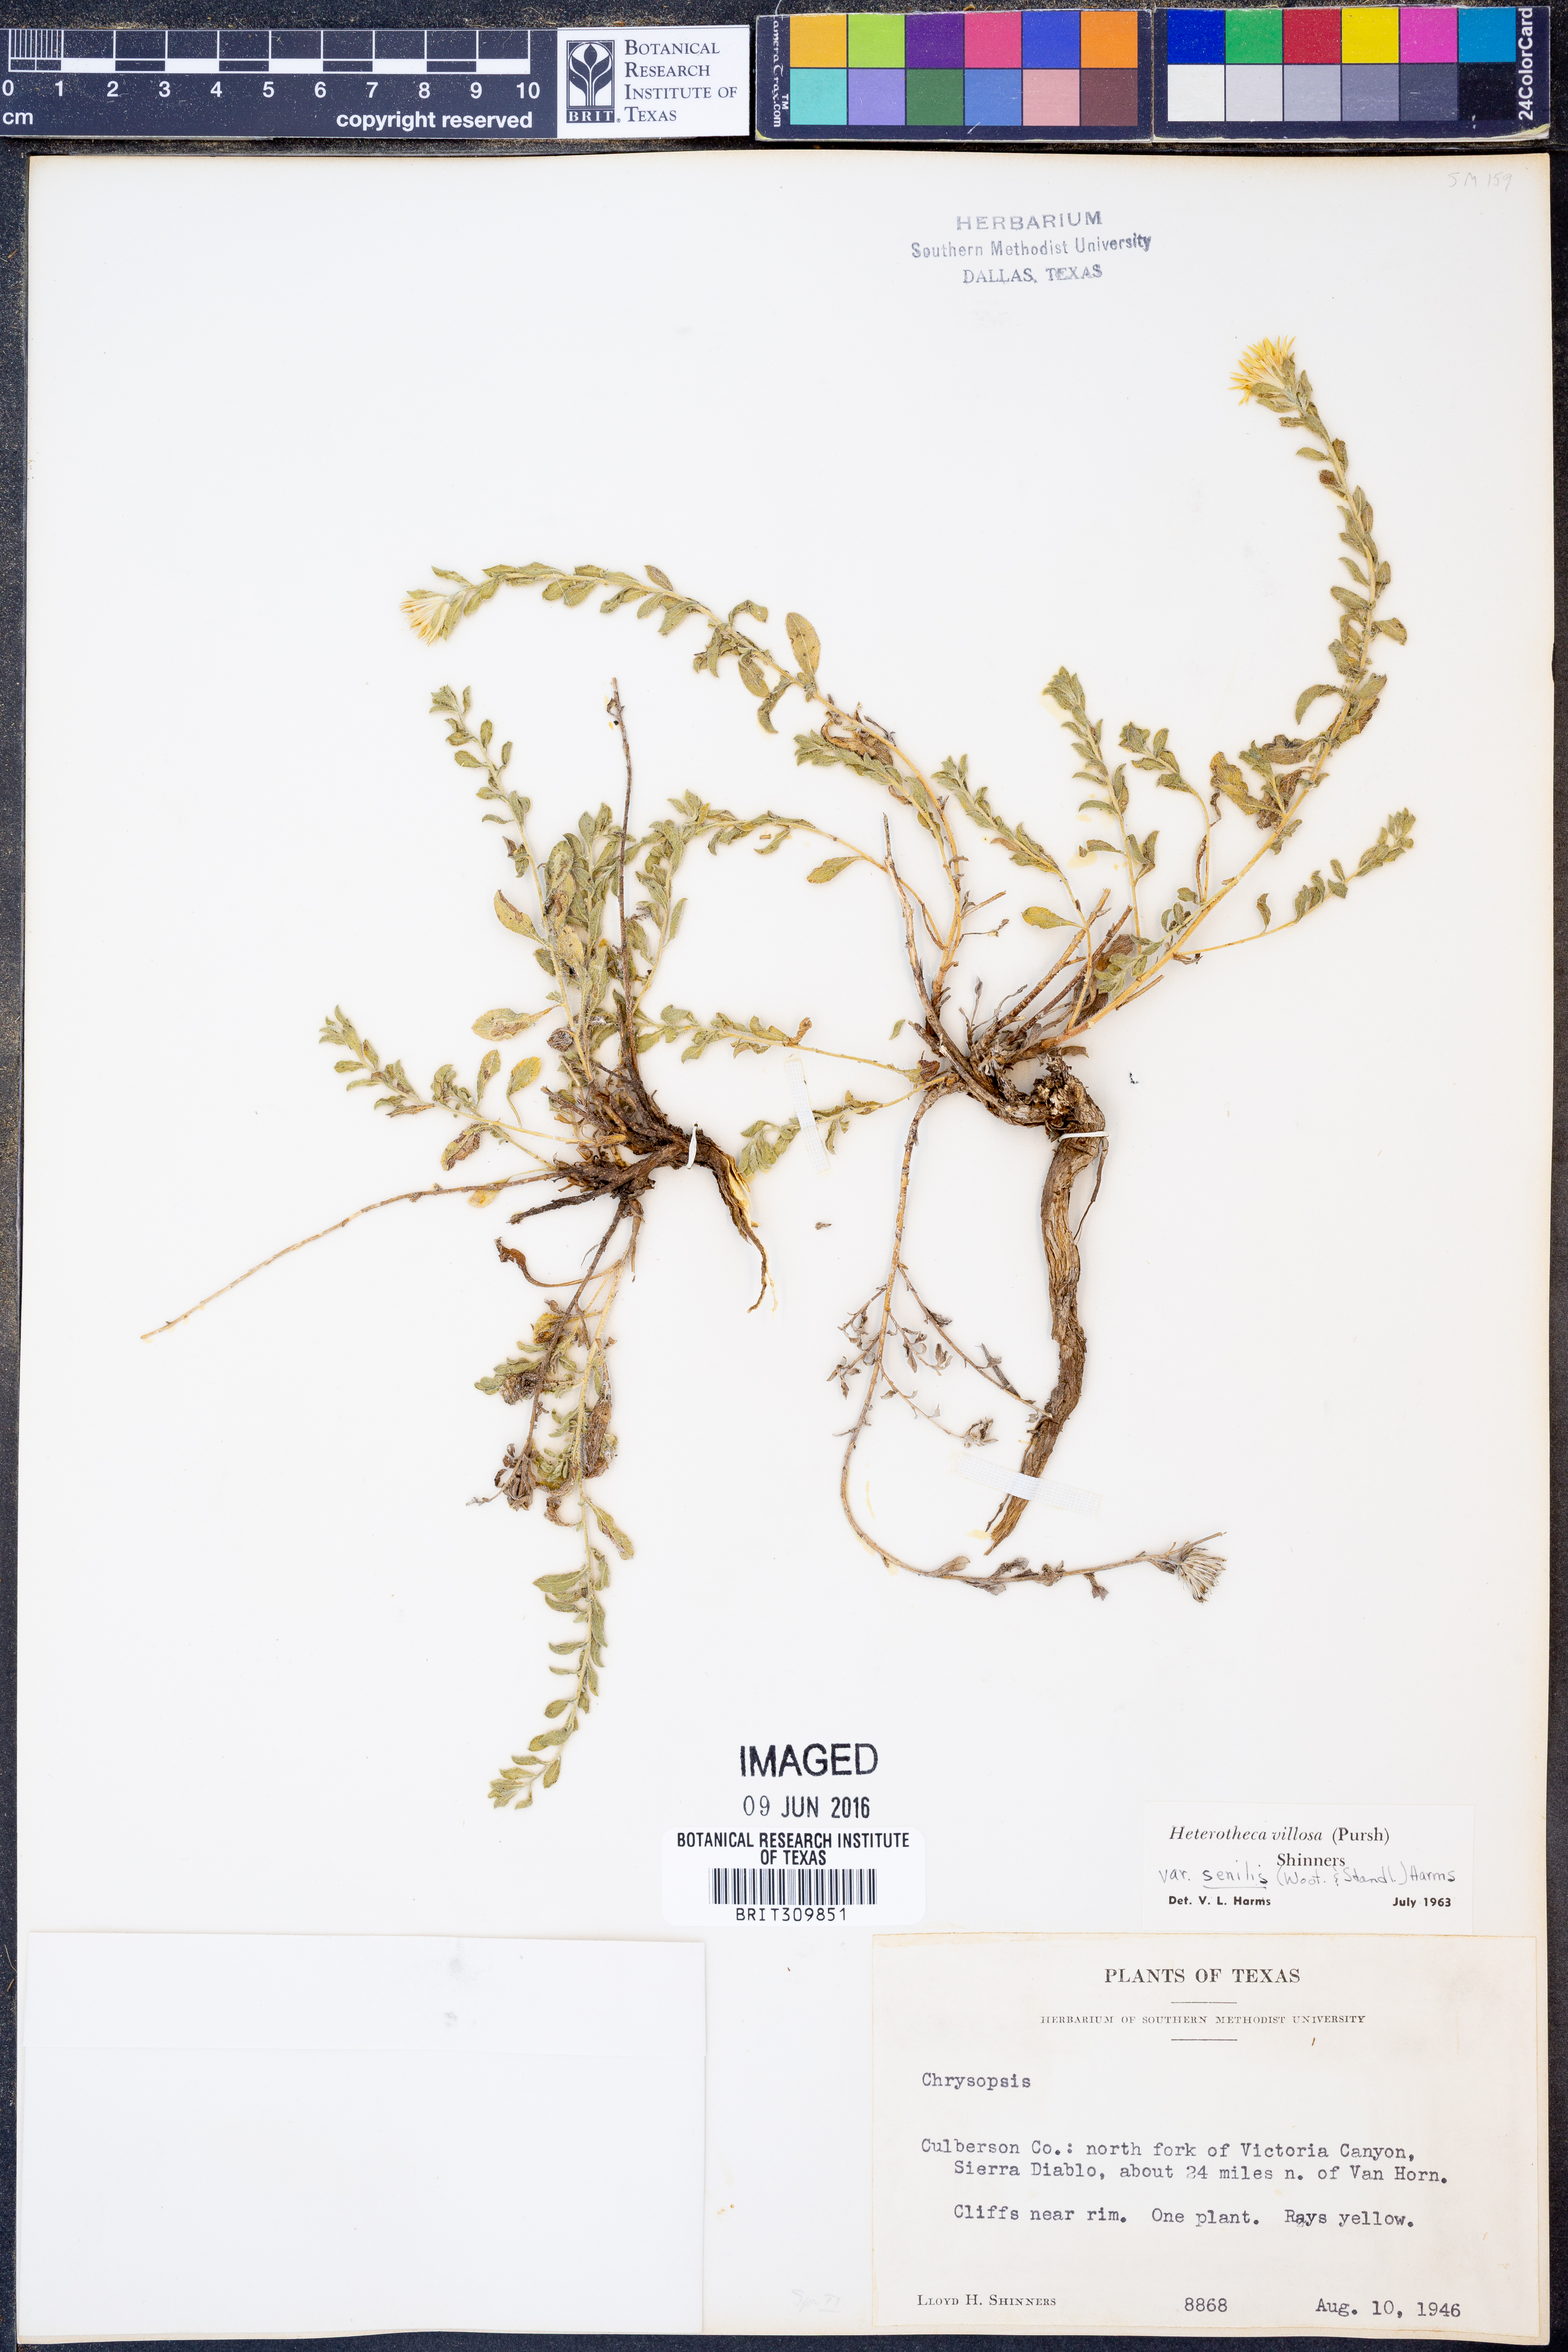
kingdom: Plantae
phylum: Tracheophyta
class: Magnoliopsida
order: Asterales
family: Asteraceae
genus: Heterotheca
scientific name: Heterotheca villosa
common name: Hairy false goldenaster
